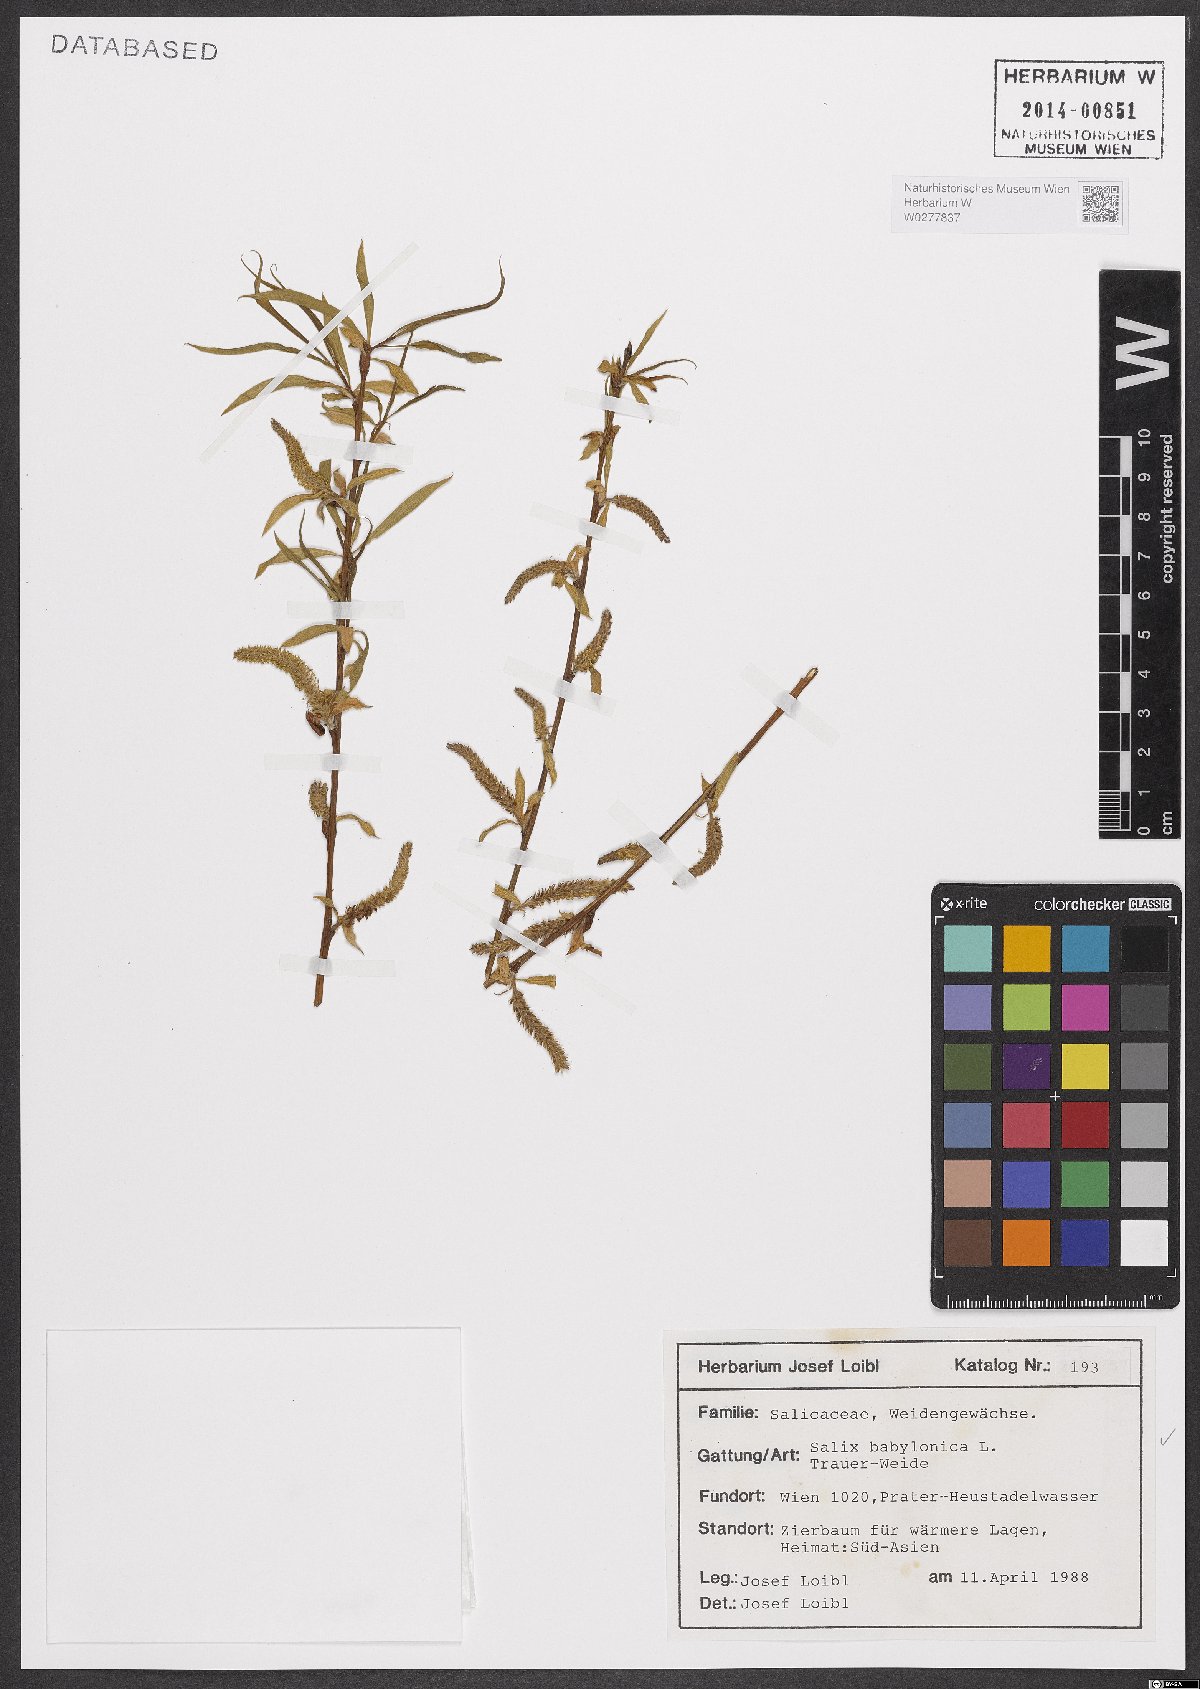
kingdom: Plantae
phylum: Tracheophyta
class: Magnoliopsida
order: Malpighiales
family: Salicaceae
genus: Salix
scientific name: Salix babylonica
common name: Weeping willow
